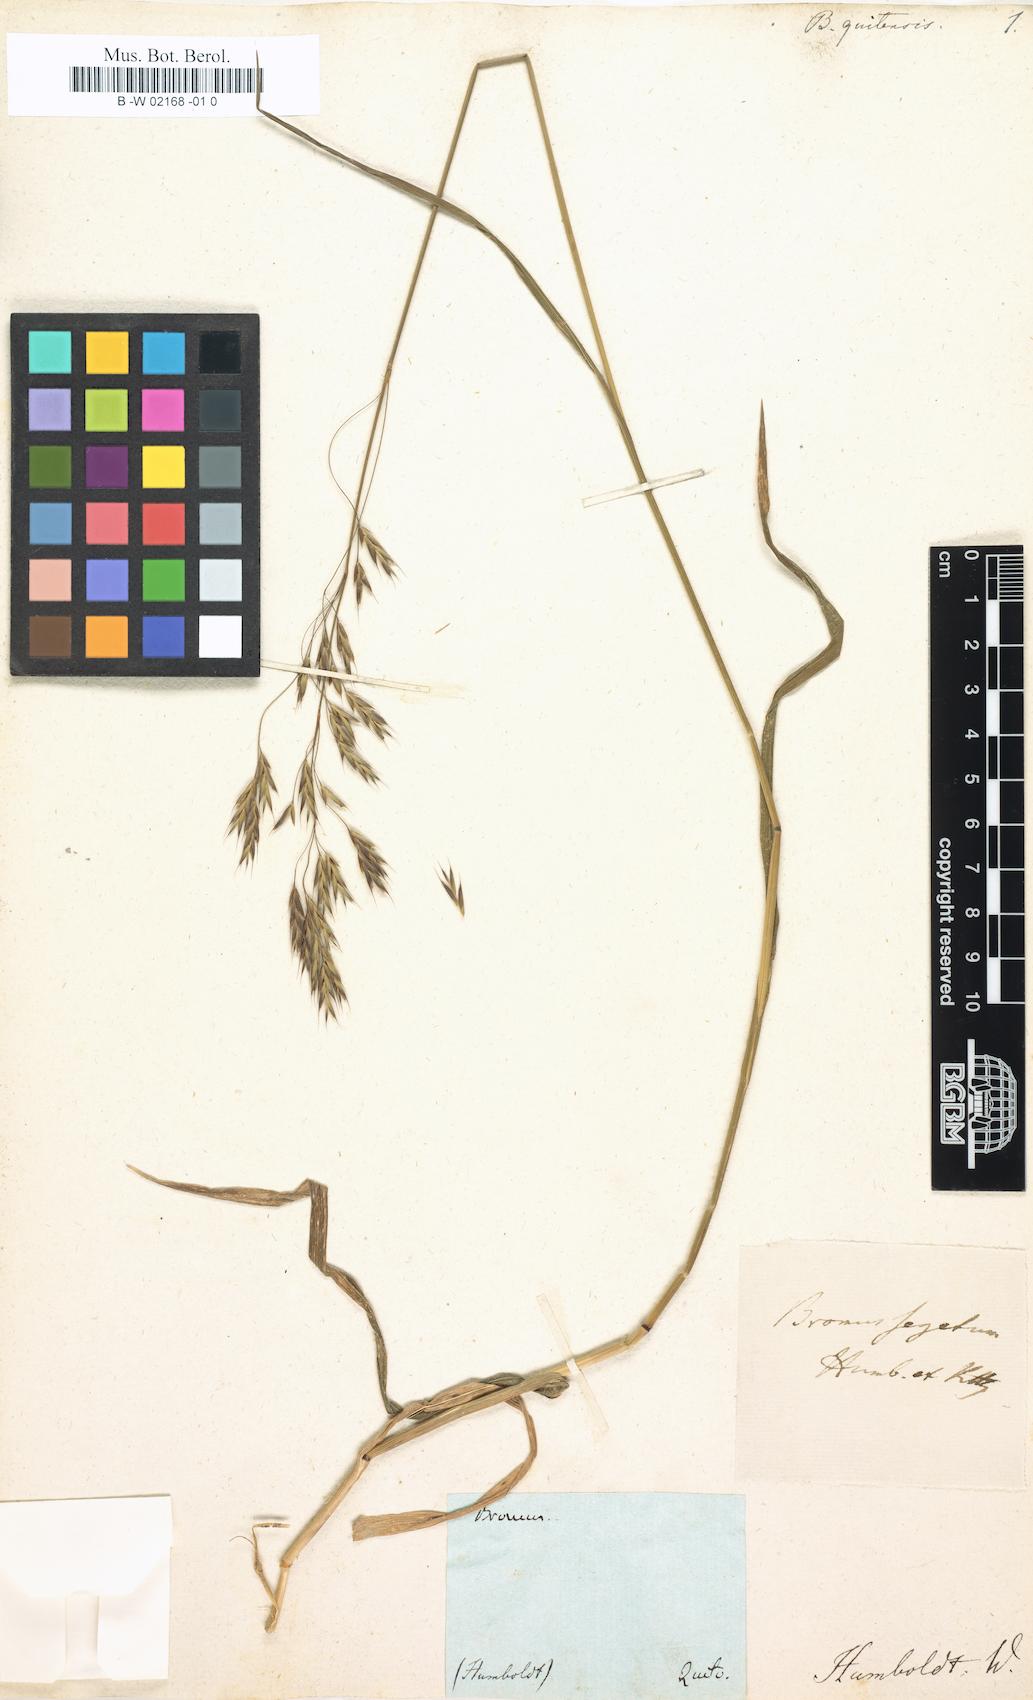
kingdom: Plantae
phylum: Tracheophyta
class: Liliopsida
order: Poales
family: Poaceae
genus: Bromus
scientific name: Bromus segetum
